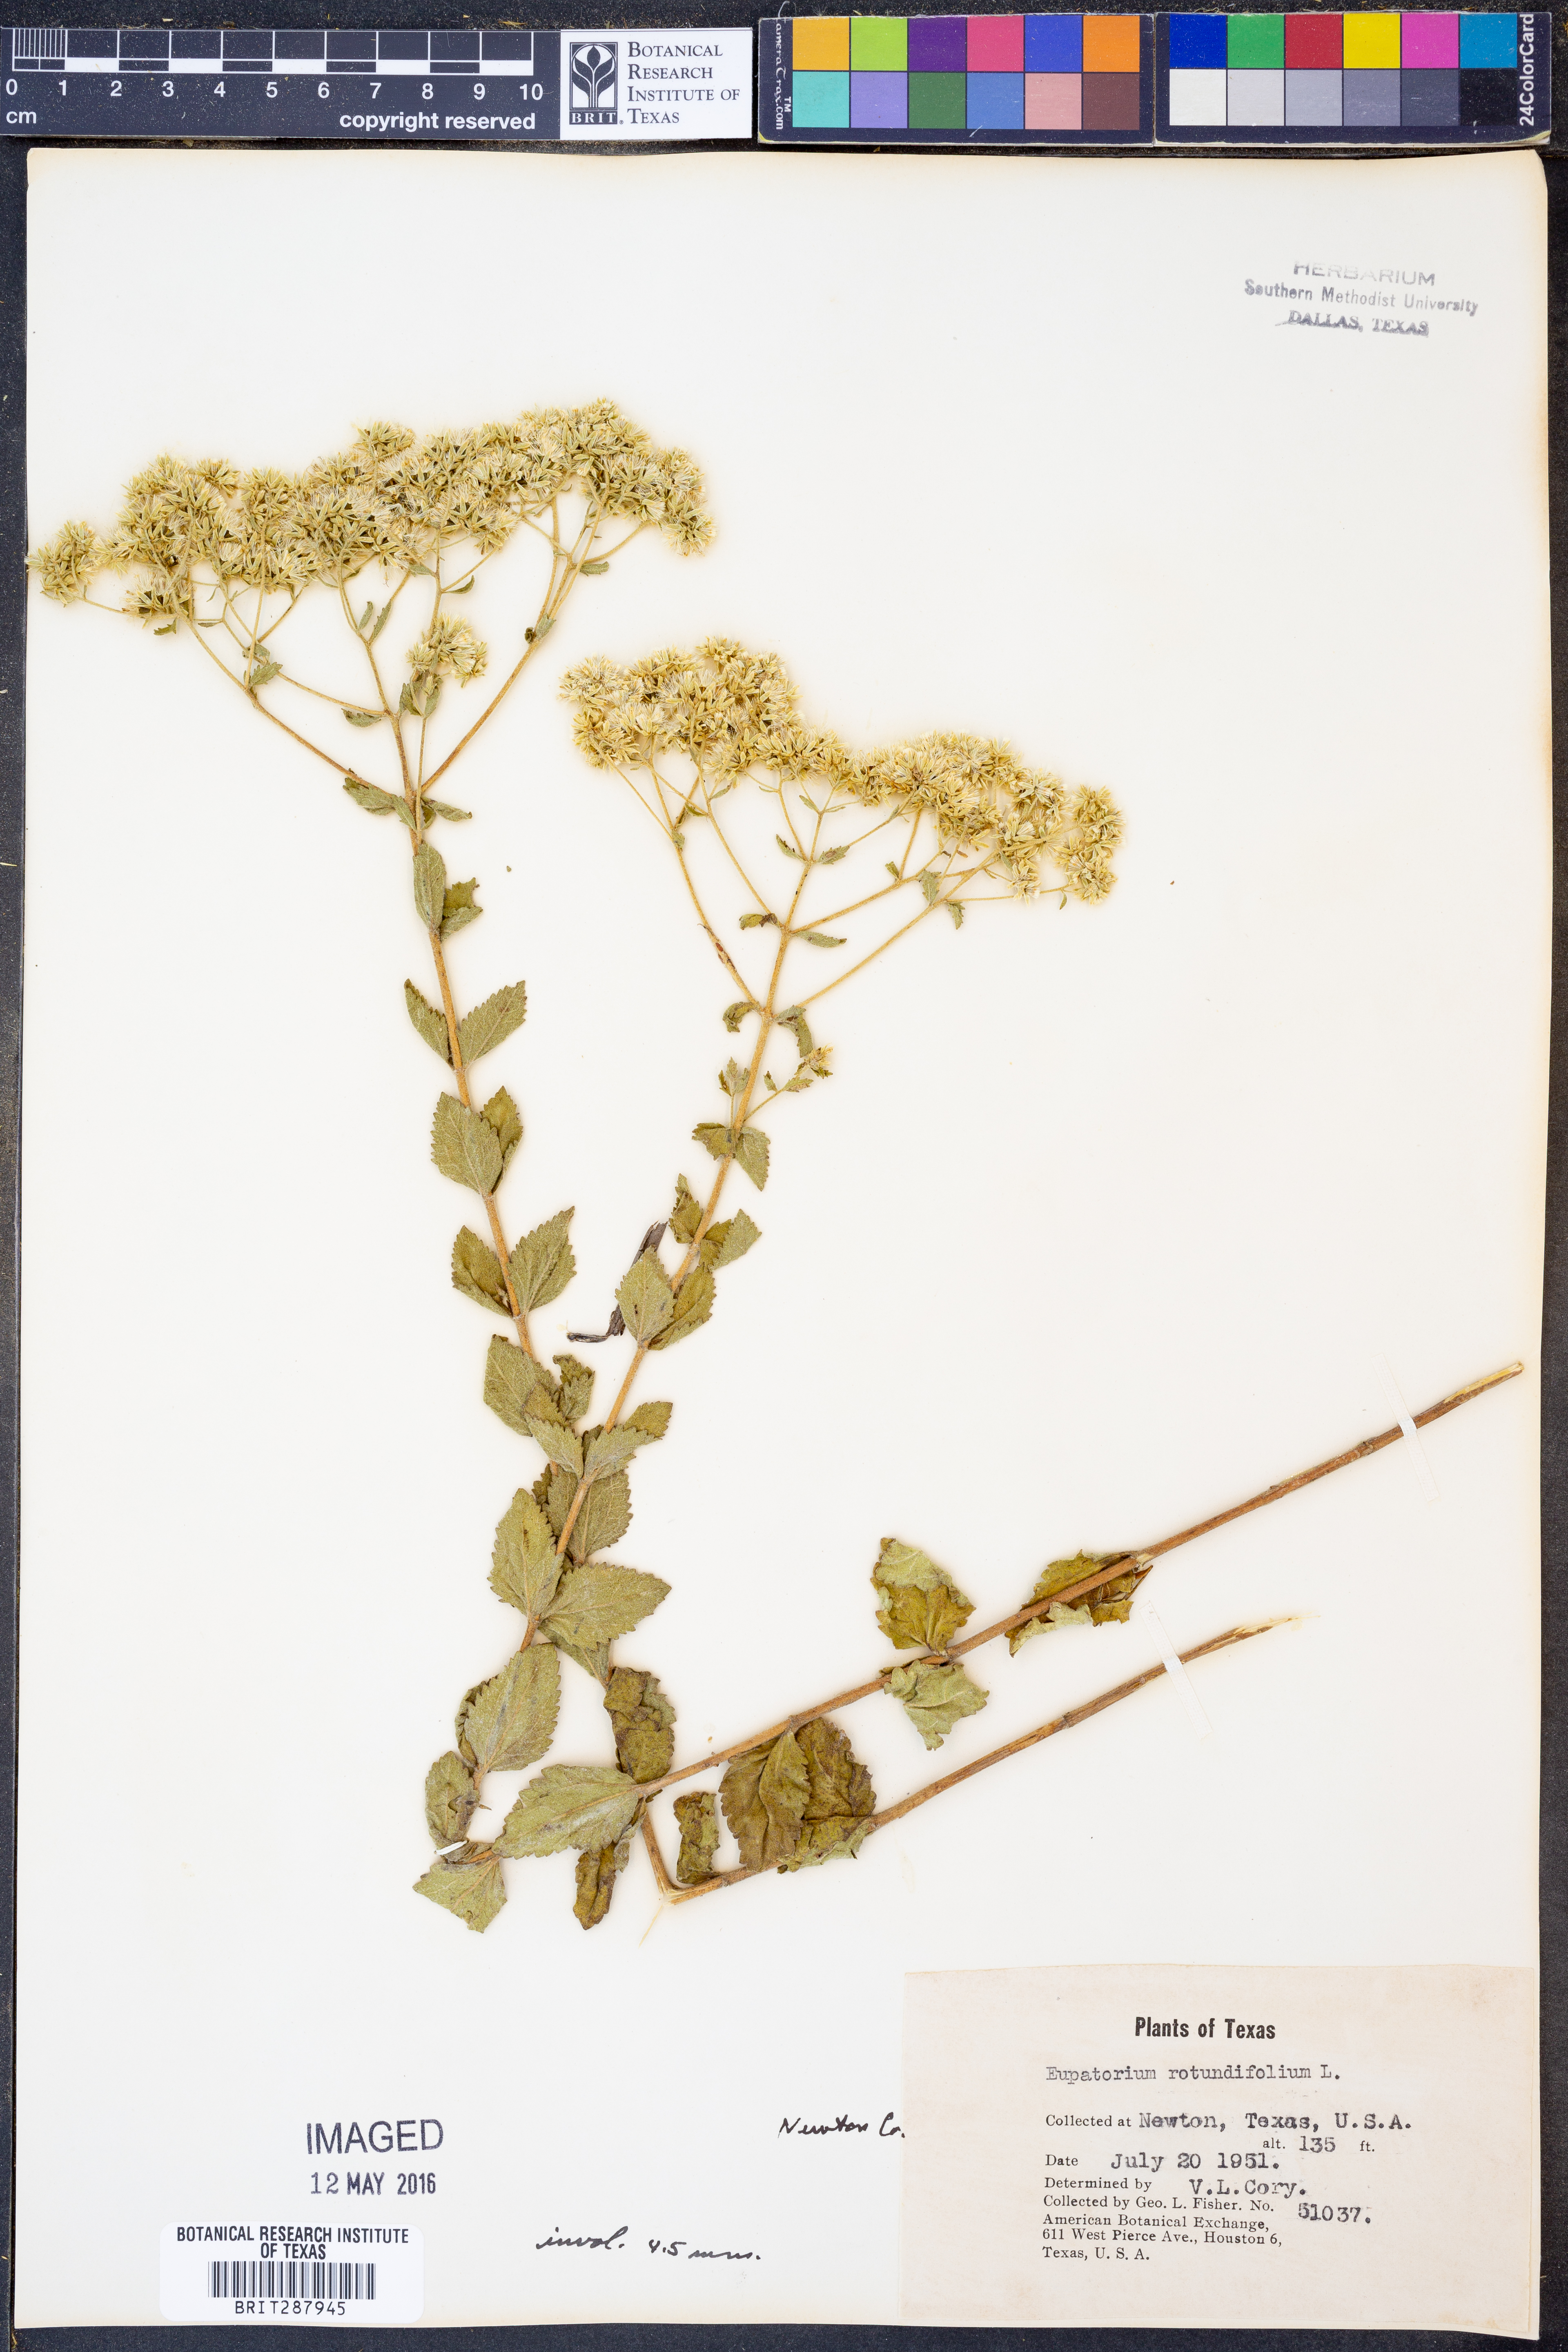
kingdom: Plantae
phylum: Tracheophyta
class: Magnoliopsida
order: Asterales
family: Asteraceae
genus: Eupatorium
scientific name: Eupatorium rotundifolium
